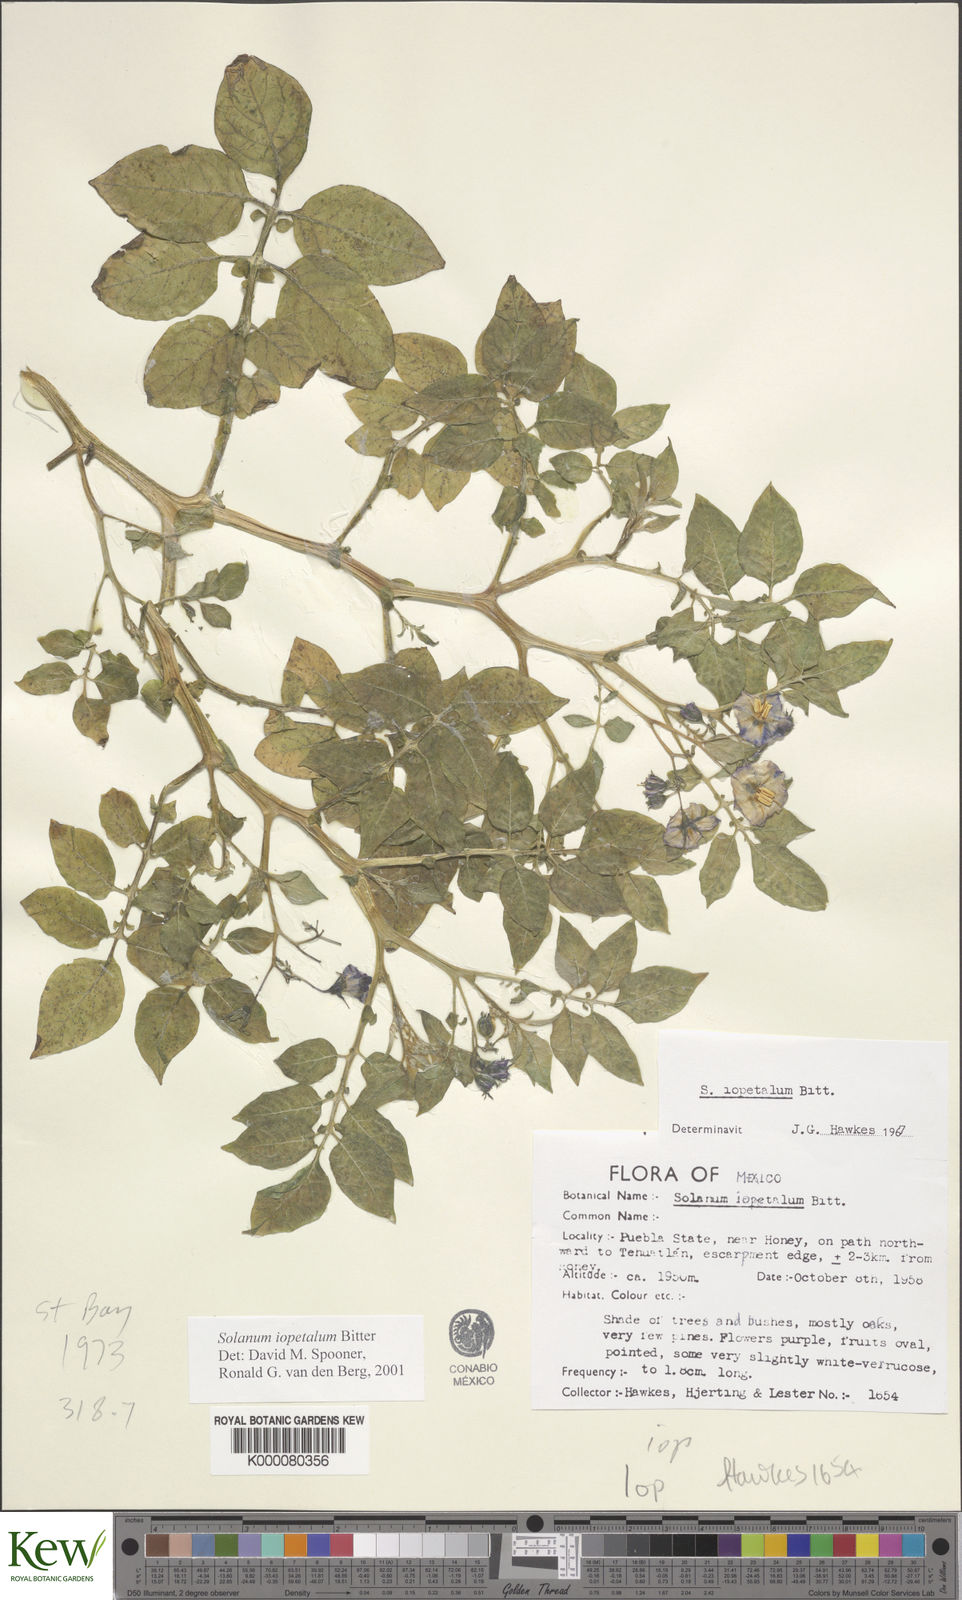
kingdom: Plantae
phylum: Tracheophyta
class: Magnoliopsida
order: Solanales
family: Solanaceae
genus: Solanum
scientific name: Solanum iopetalum
